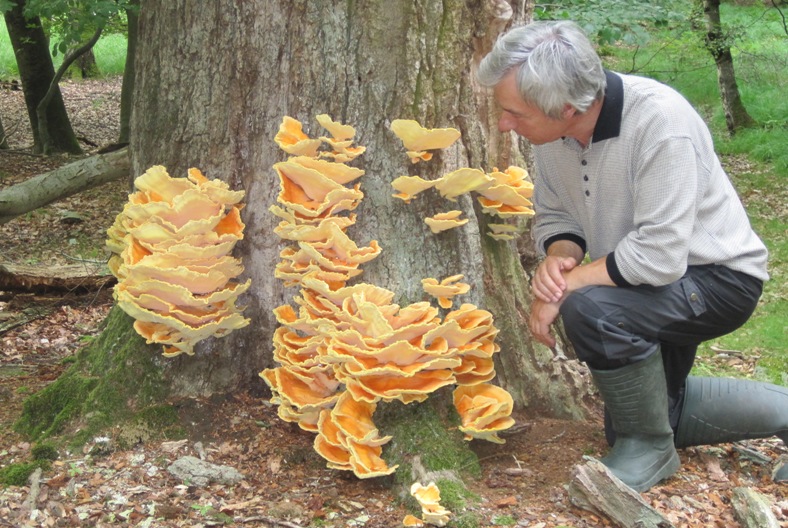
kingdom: Fungi
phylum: Basidiomycota
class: Agaricomycetes
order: Polyporales
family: Laetiporaceae
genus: Laetiporus
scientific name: Laetiporus sulphureus
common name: svovlporesvamp
